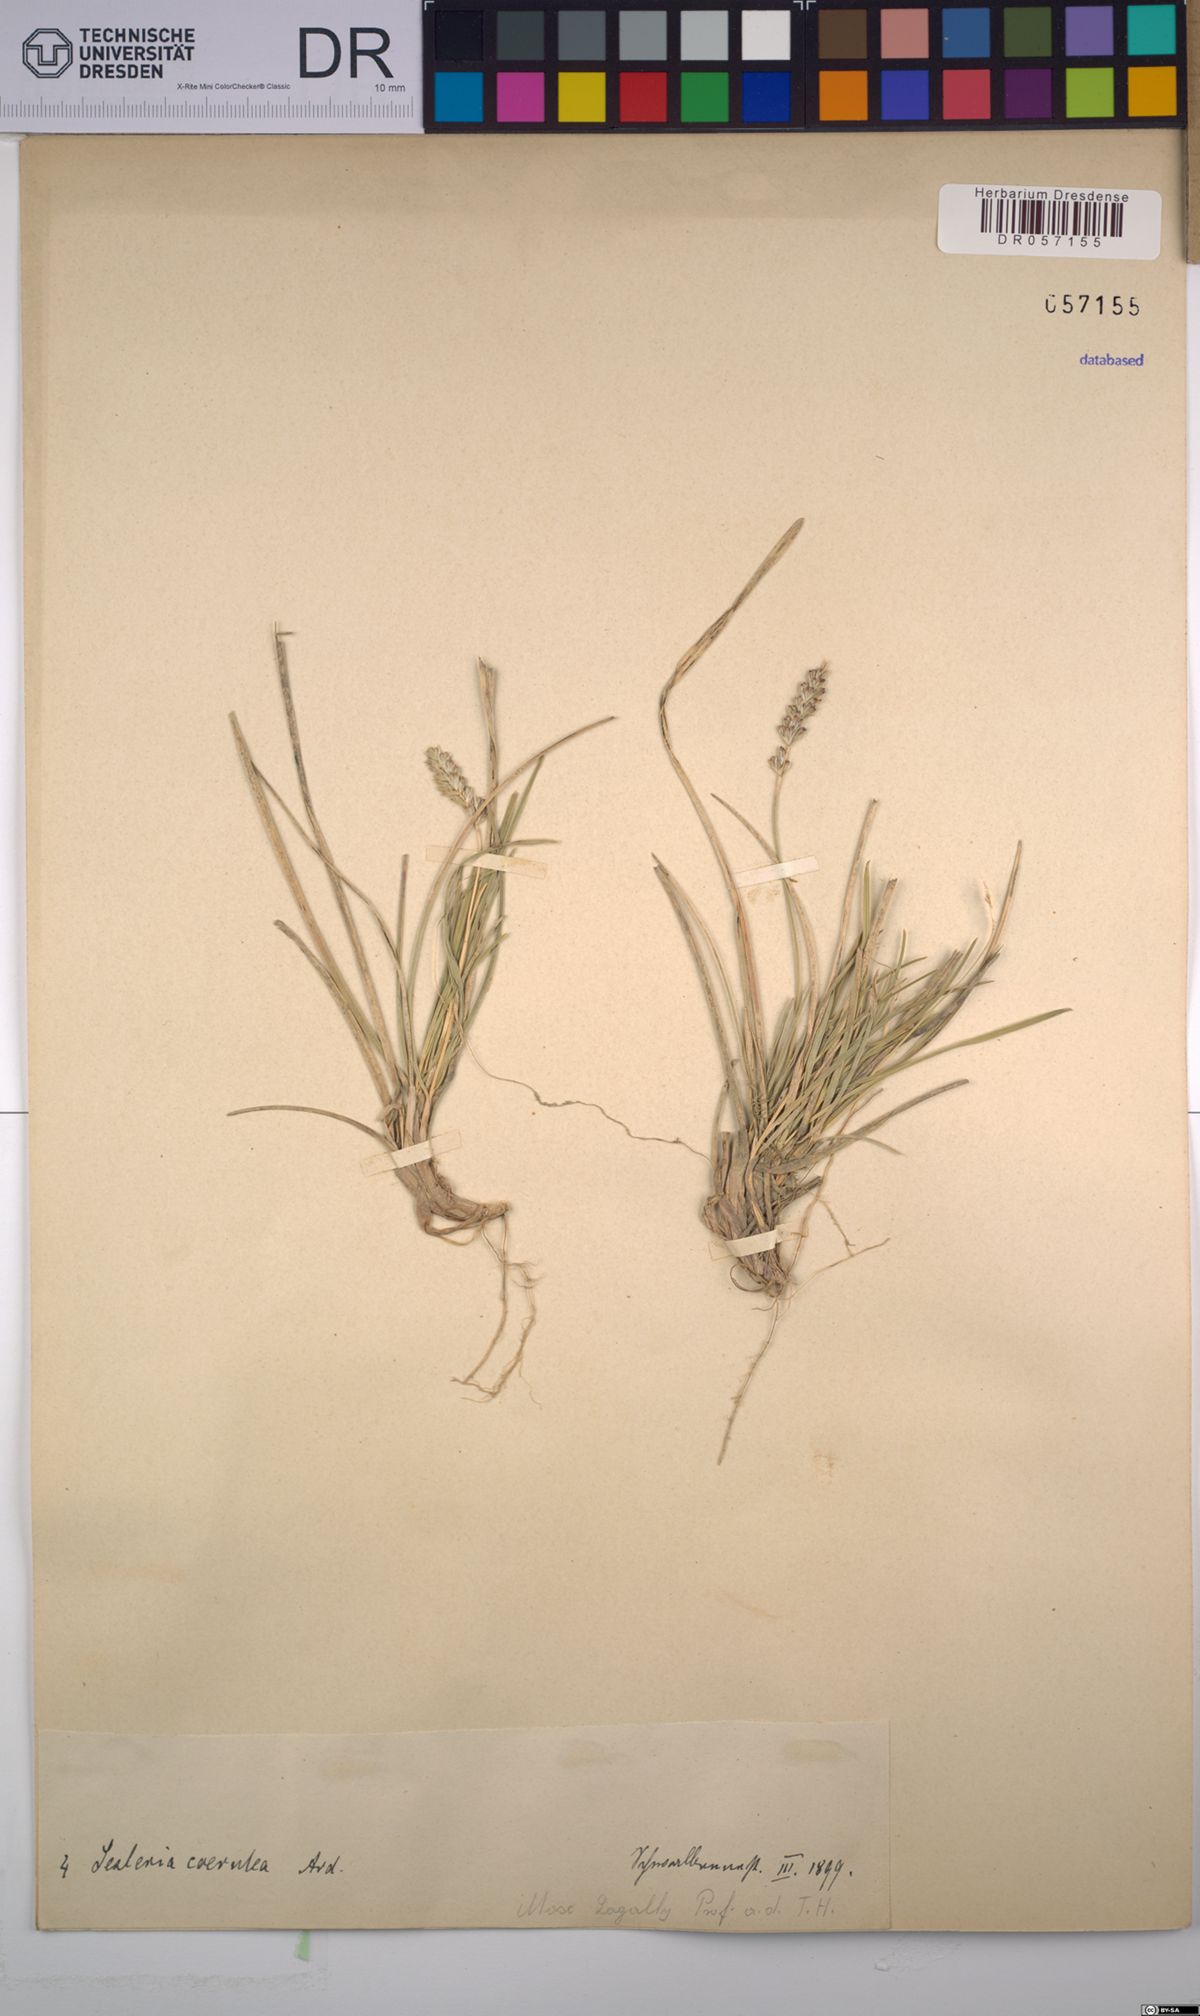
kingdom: Plantae
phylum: Tracheophyta
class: Liliopsida
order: Poales
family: Poaceae
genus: Sesleria
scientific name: Sesleria caerulea
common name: Blue moor-grass
